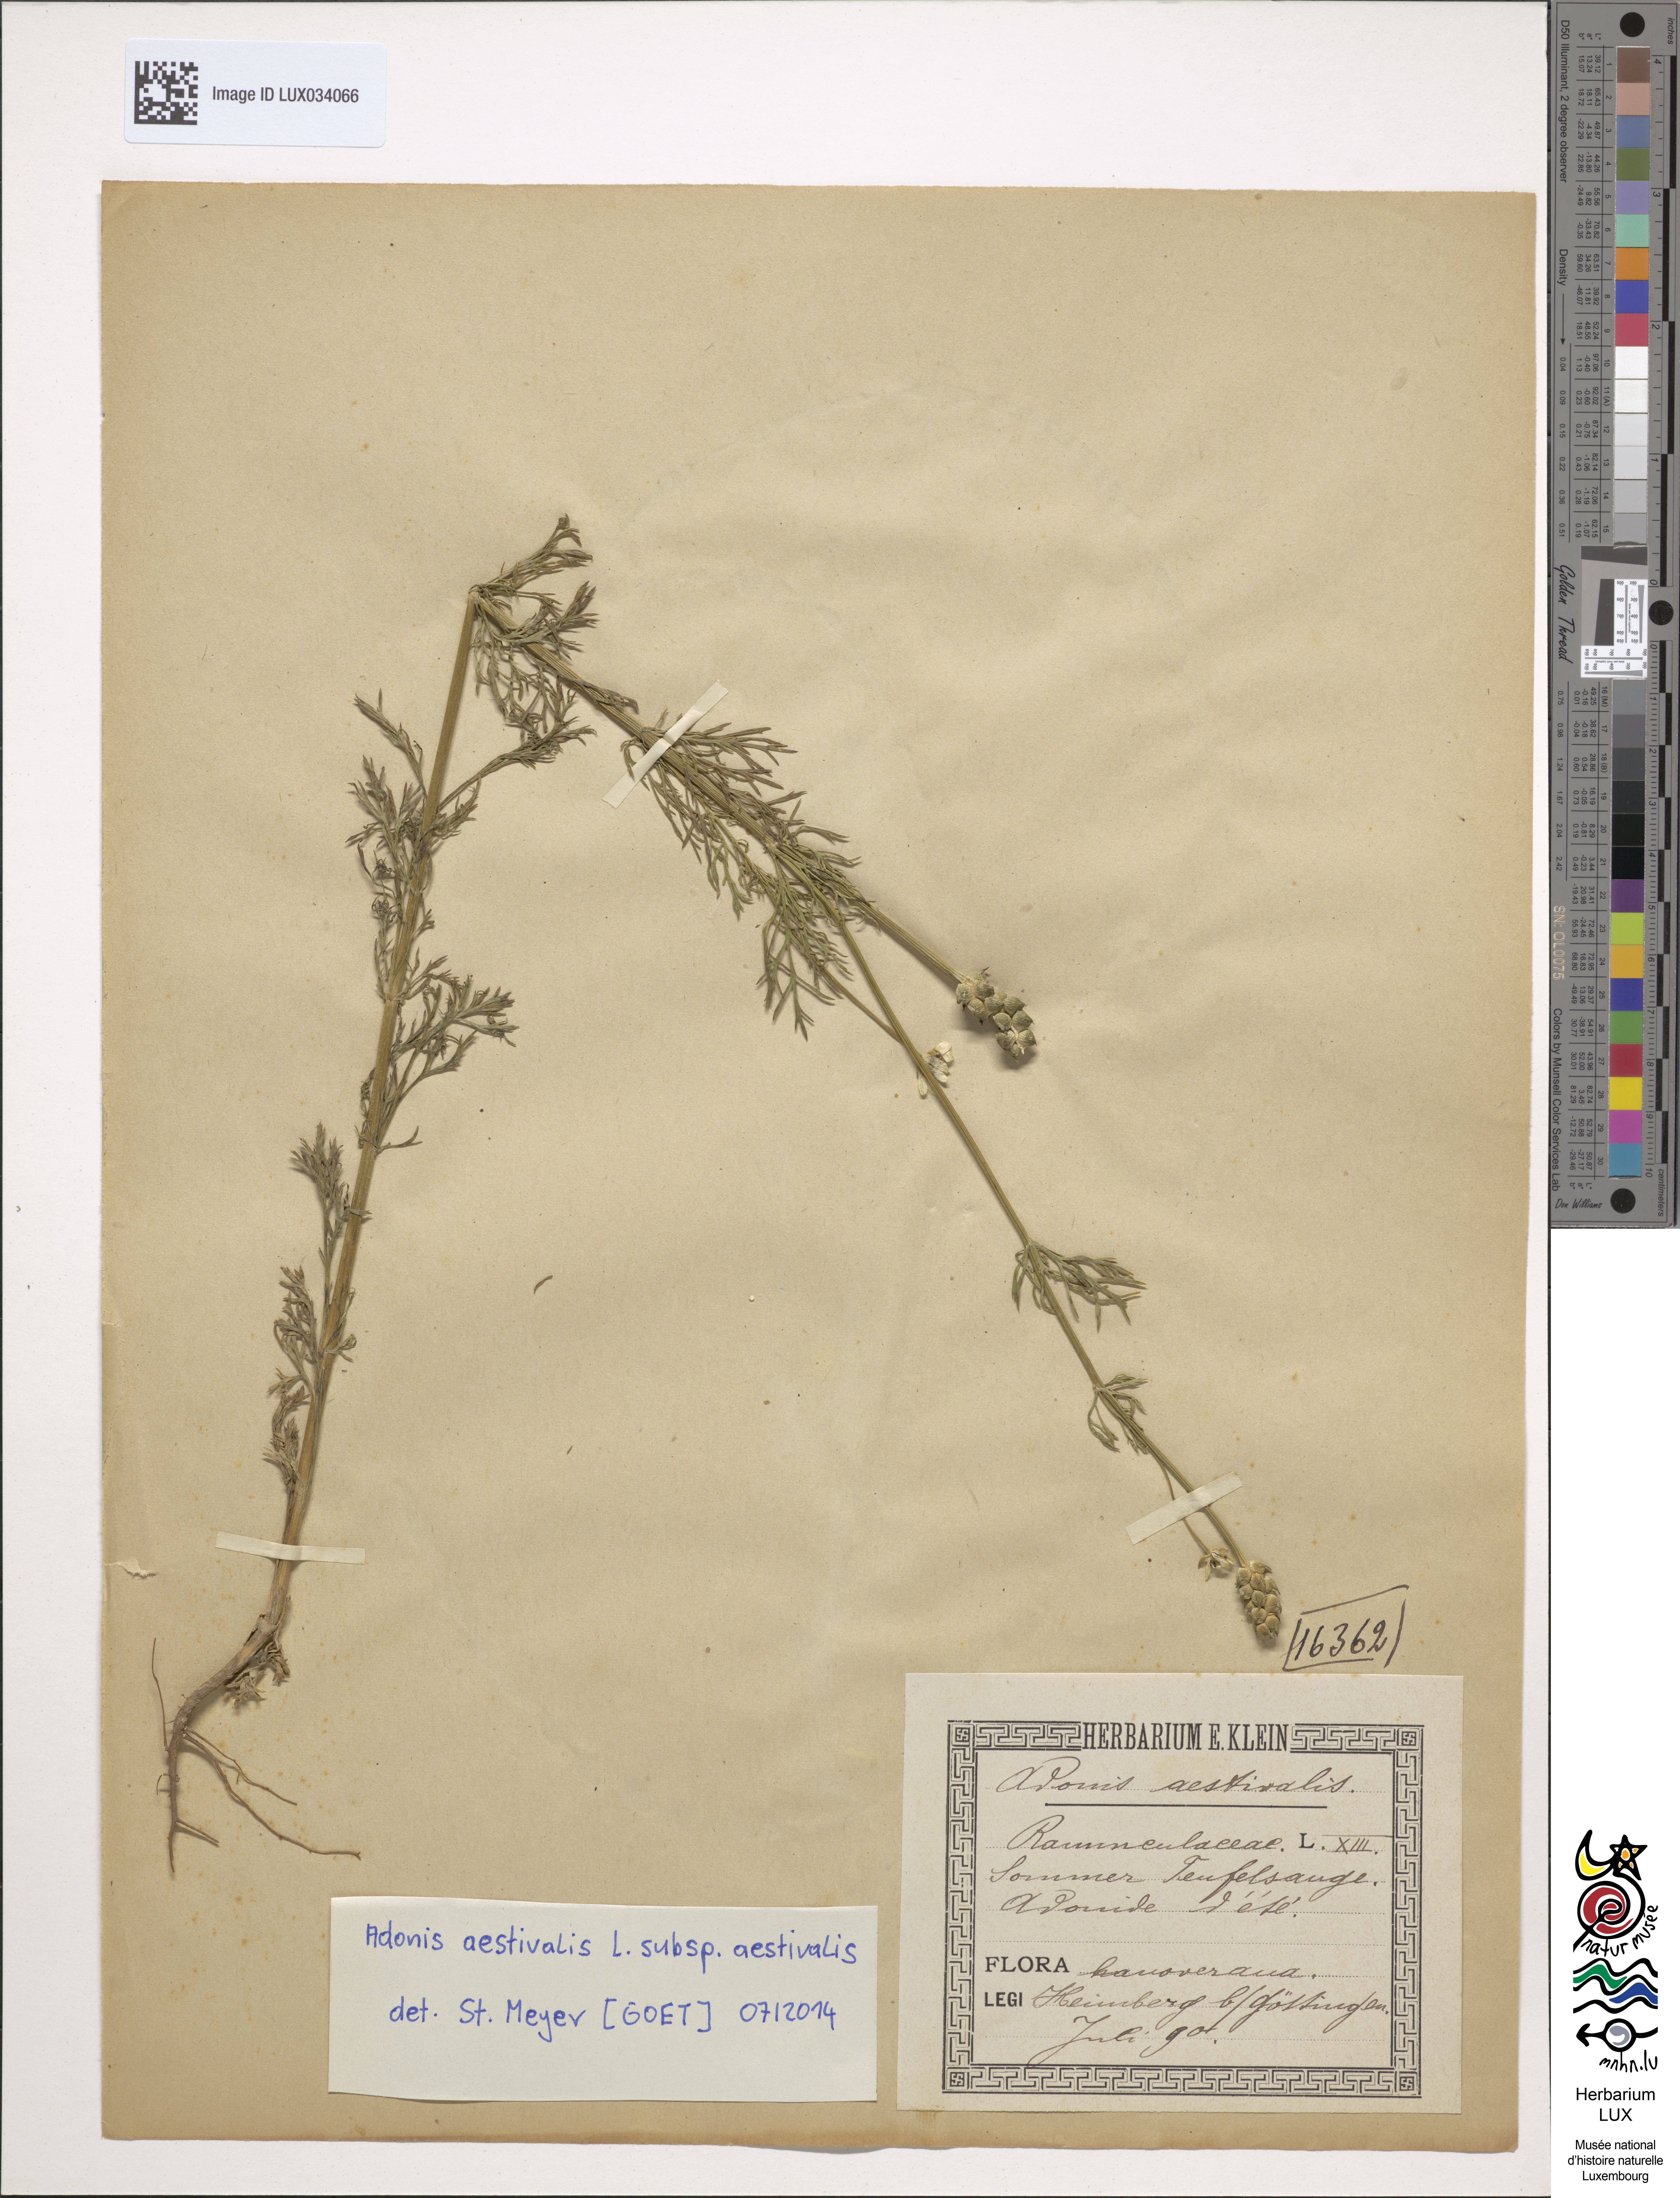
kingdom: Plantae
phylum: Tracheophyta
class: Magnoliopsida
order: Ranunculales
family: Ranunculaceae
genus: Adonis
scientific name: Adonis aestivalis
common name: Summer pheasant's-eye
